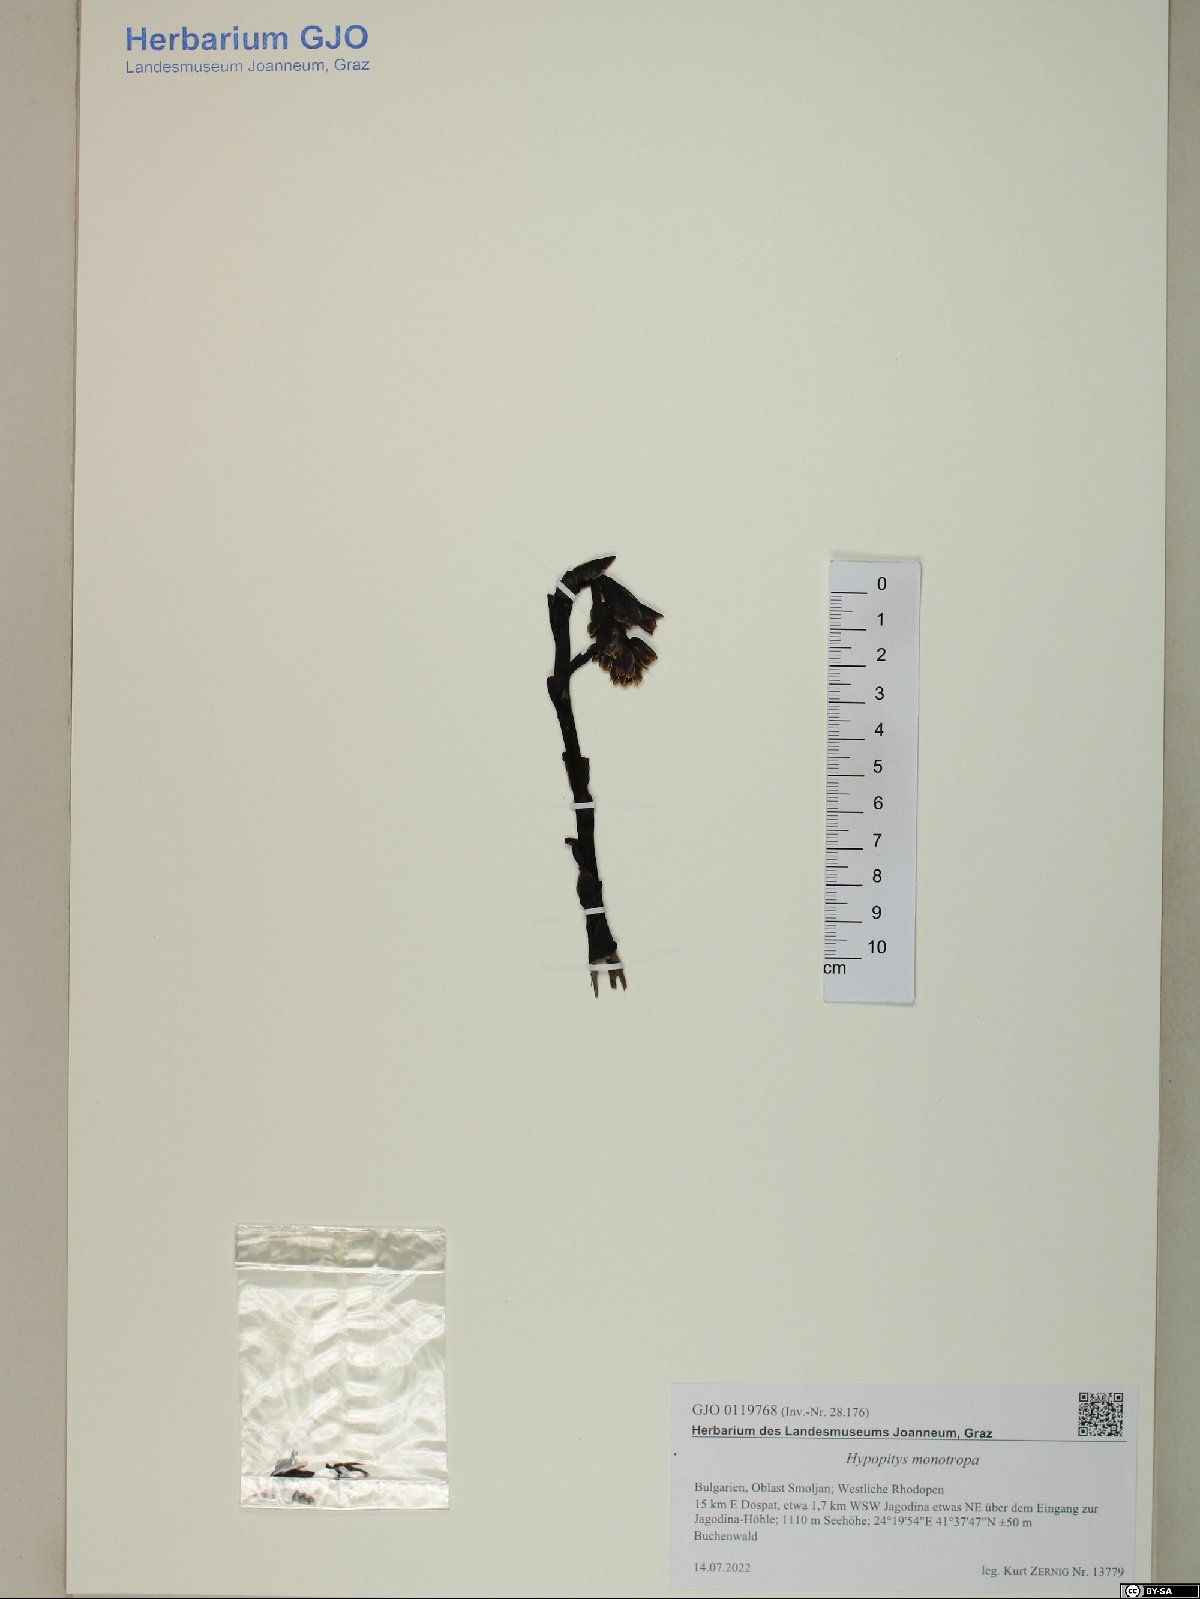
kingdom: Plantae
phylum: Tracheophyta
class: Magnoliopsida
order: Ericales
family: Ericaceae
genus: Hypopitys
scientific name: Hypopitys monotropa
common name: Yellow bird's-nest
